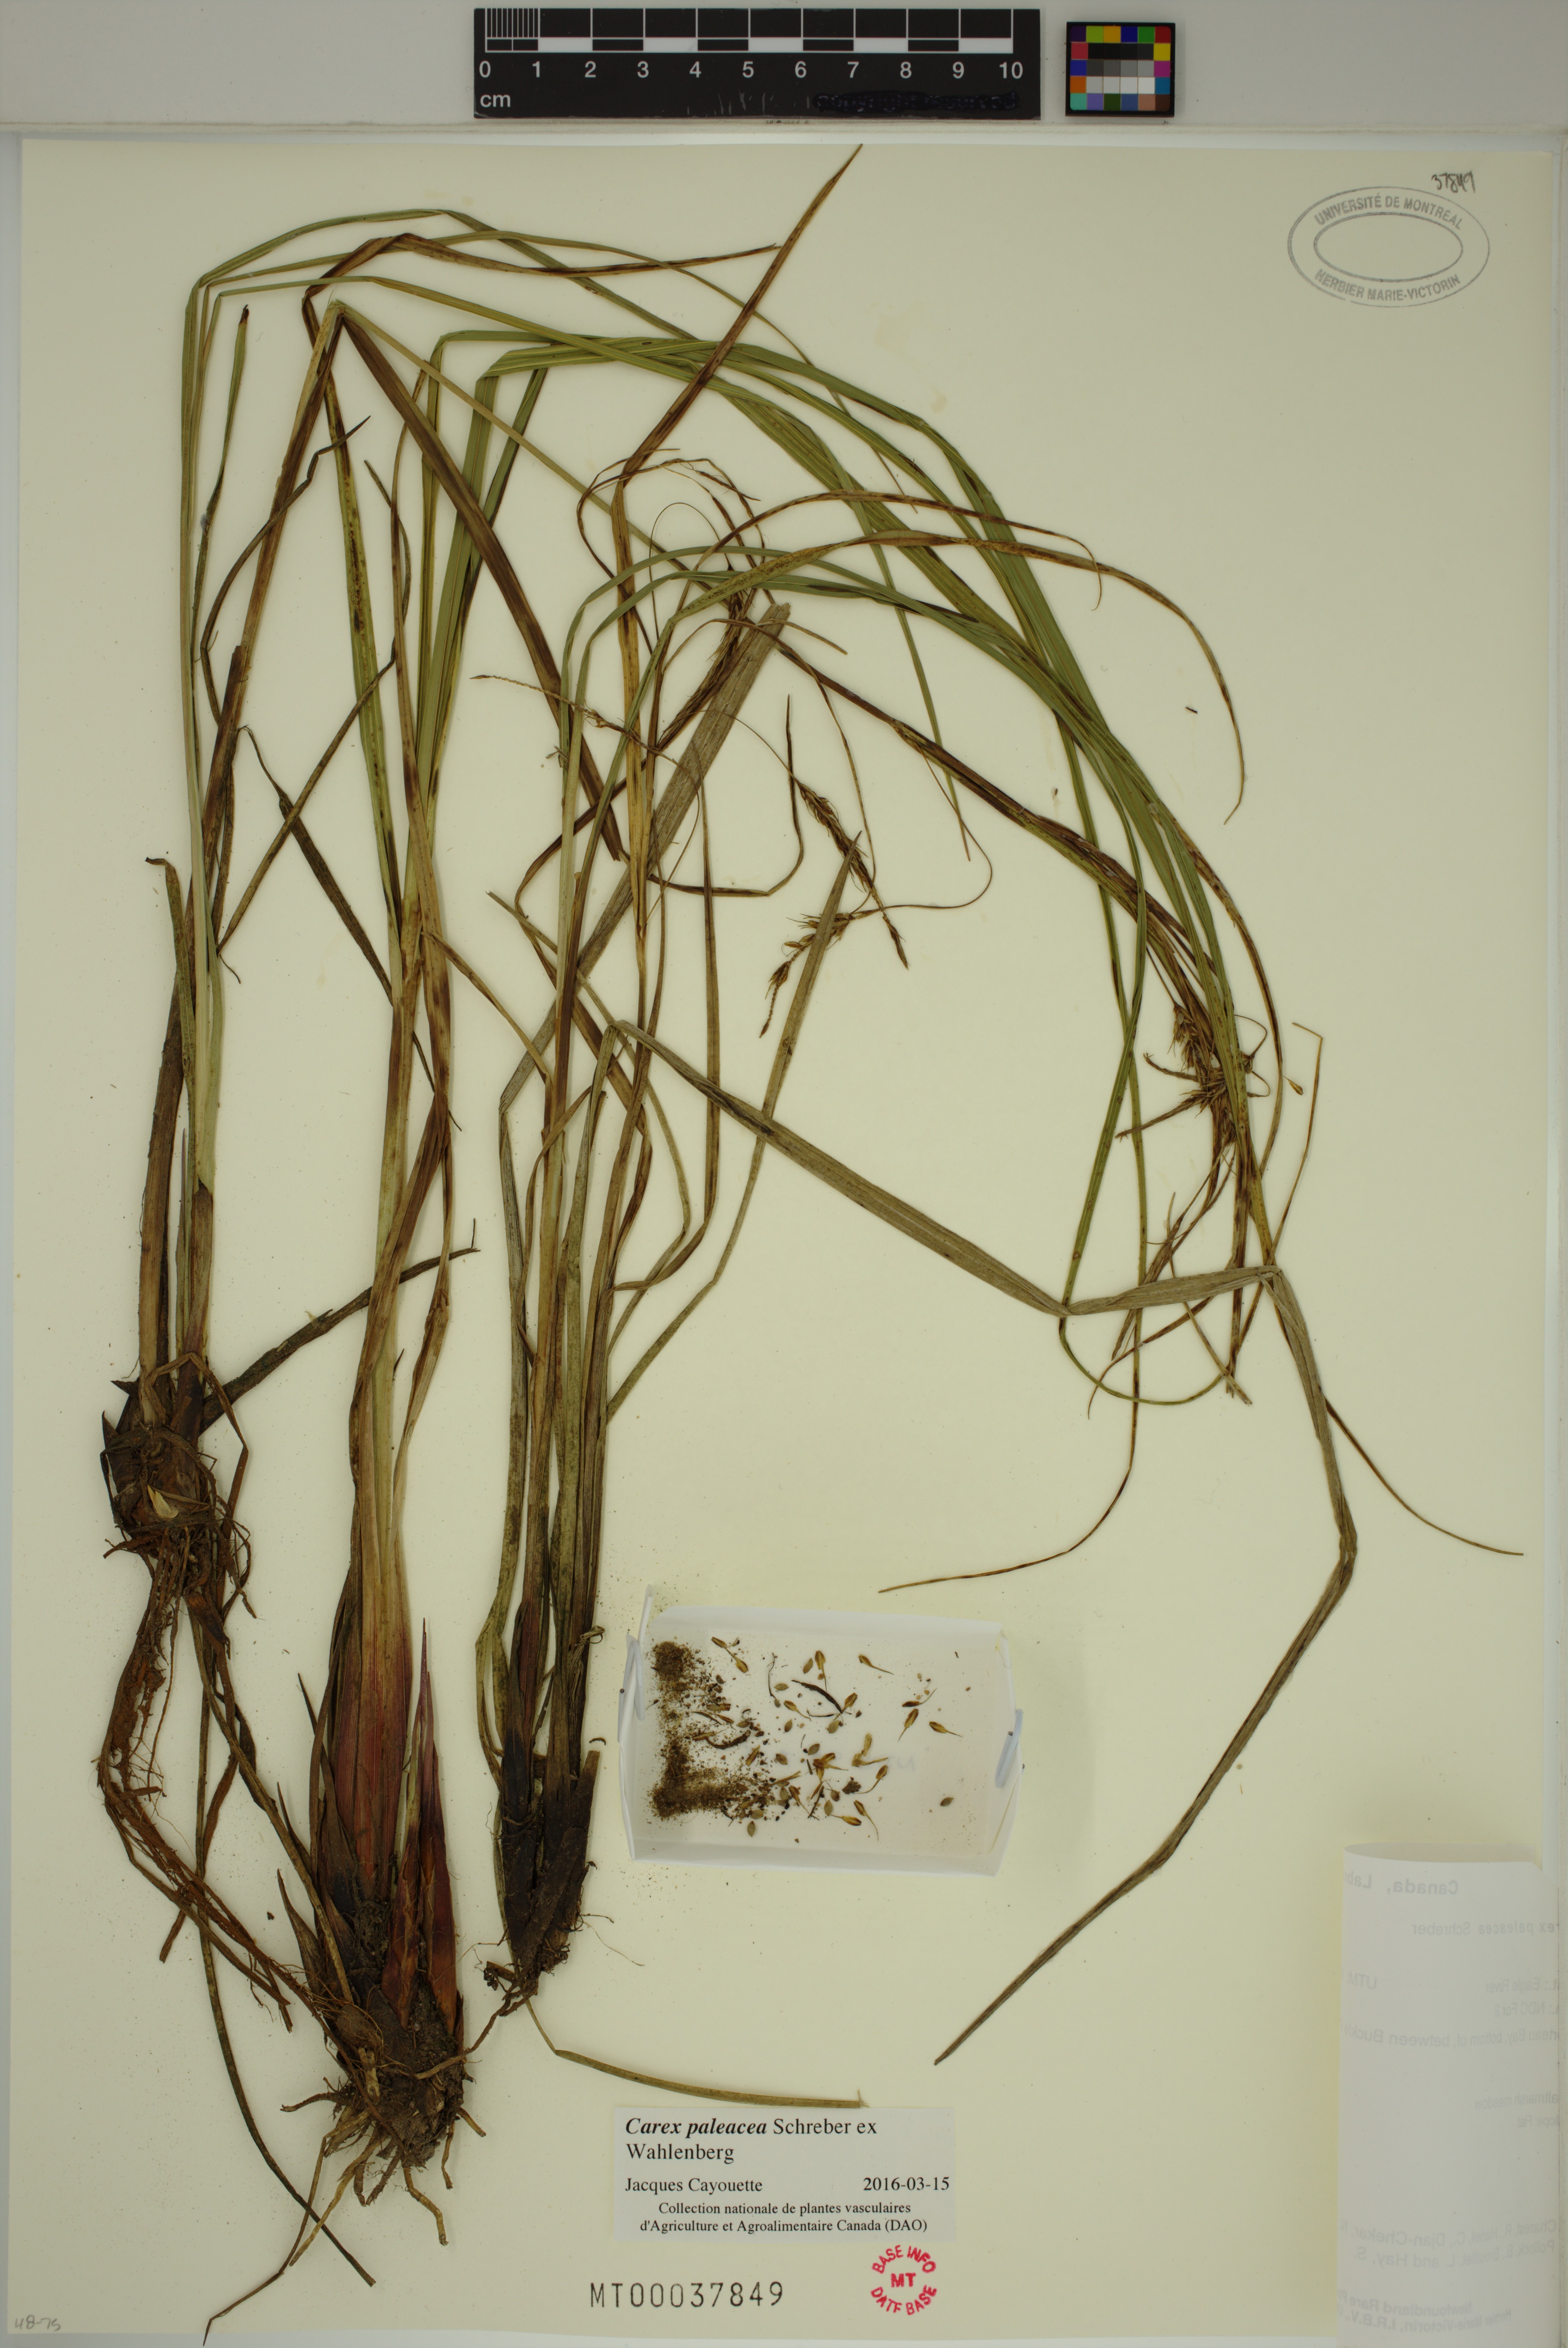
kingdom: Plantae
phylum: Tracheophyta
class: Liliopsida
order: Poales
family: Cyperaceae
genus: Carex
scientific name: Carex paleacea
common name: Chaffy sedge
